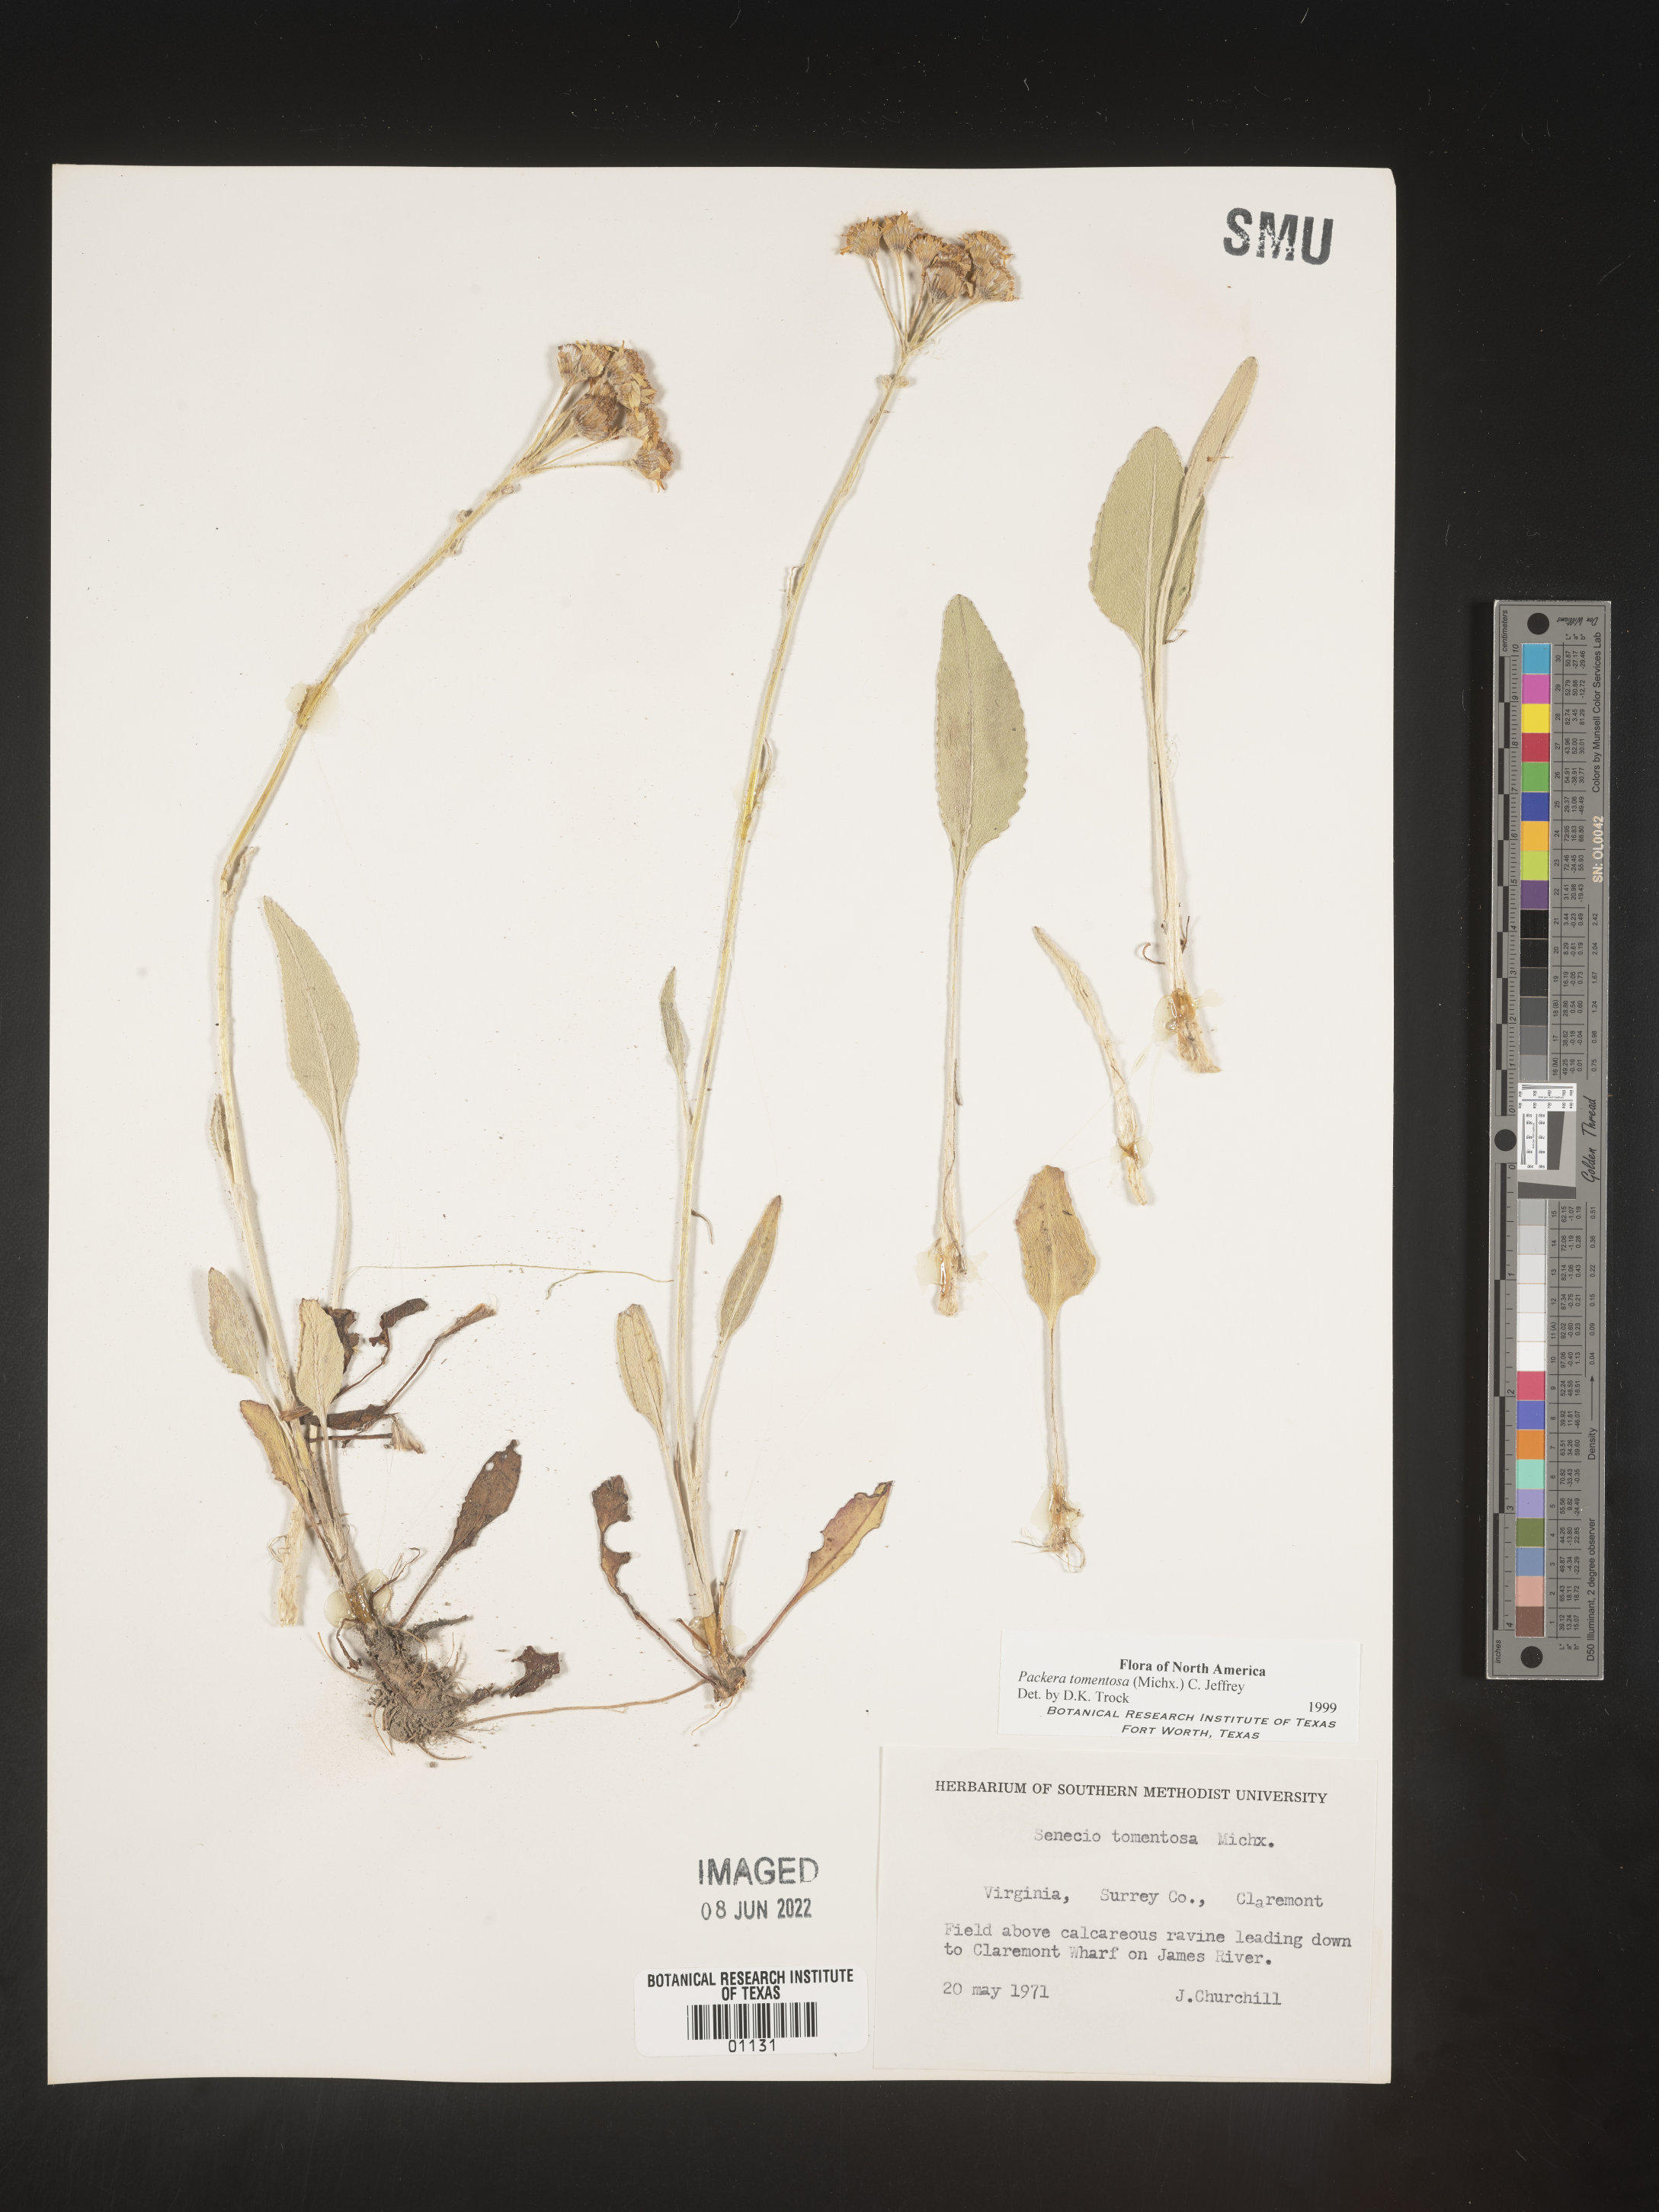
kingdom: Plantae
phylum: Tracheophyta
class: Magnoliopsida
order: Asterales
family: Asteraceae
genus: Packera
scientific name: Packera dubia
